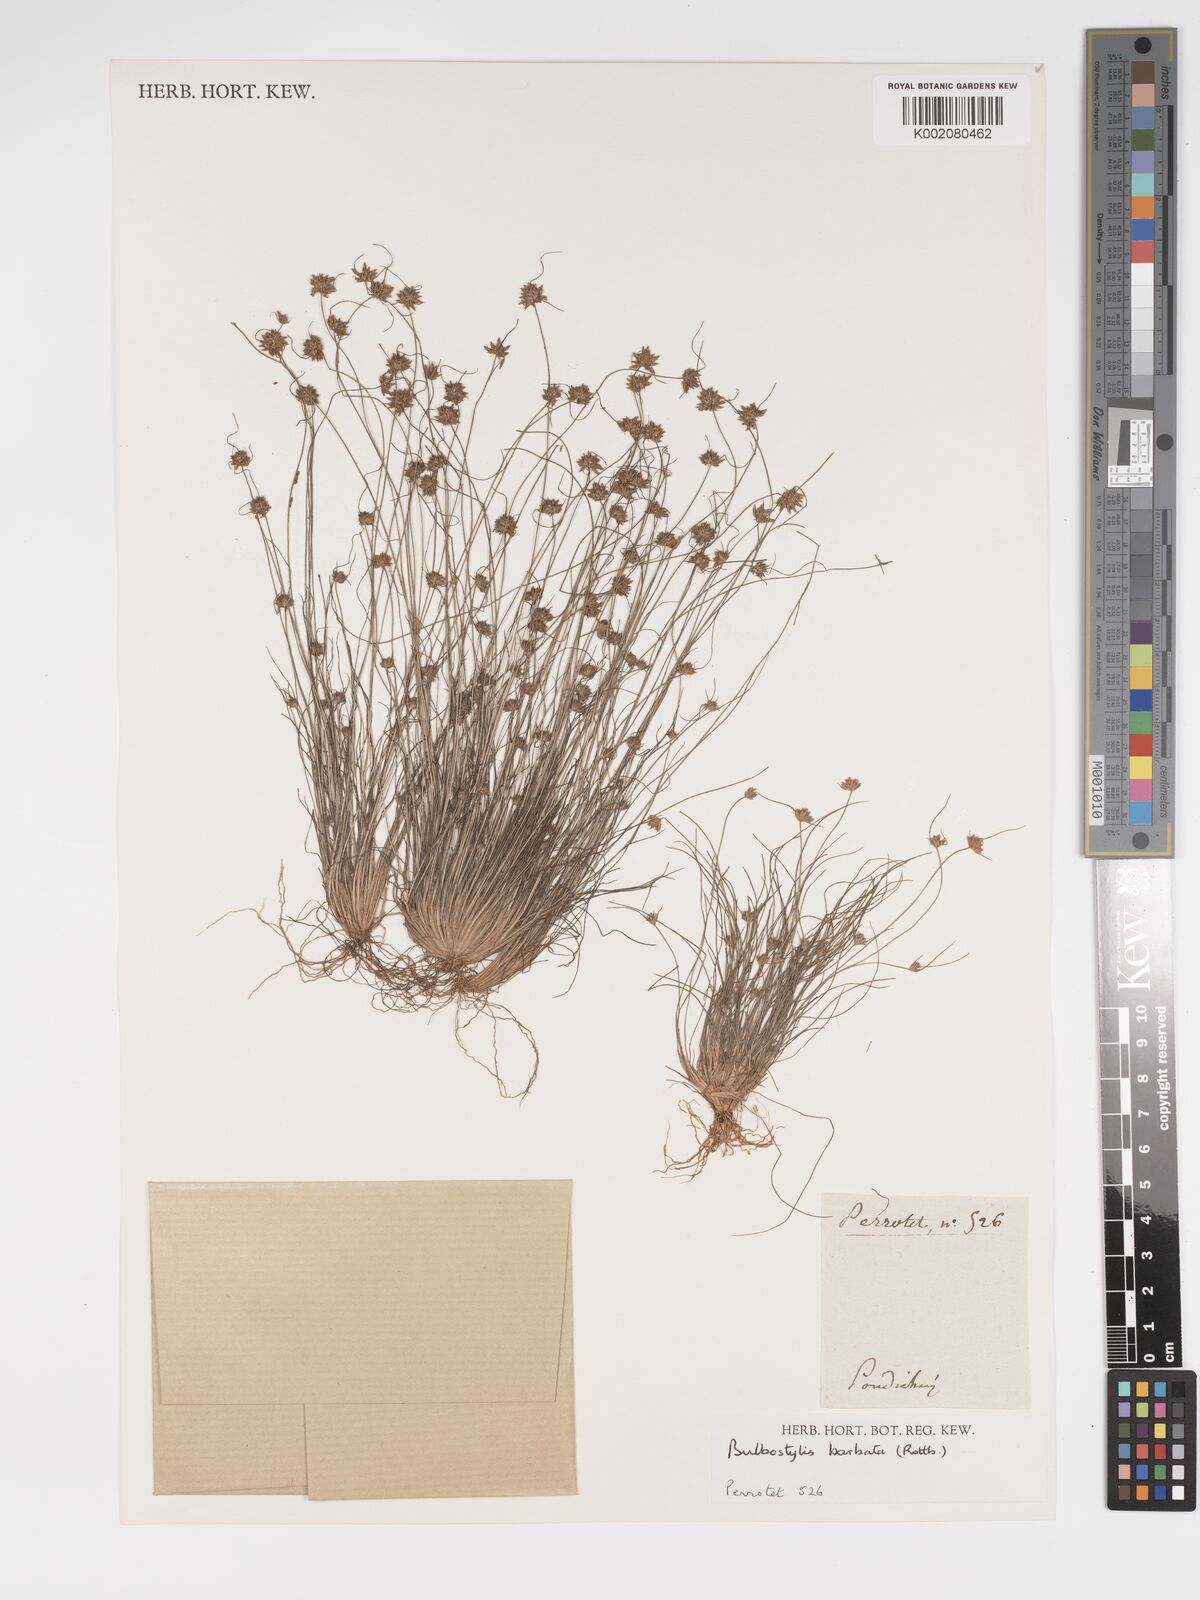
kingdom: Plantae
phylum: Tracheophyta
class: Liliopsida
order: Poales
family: Cyperaceae
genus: Bulbostylis
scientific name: Bulbostylis barbata
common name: Watergrass
